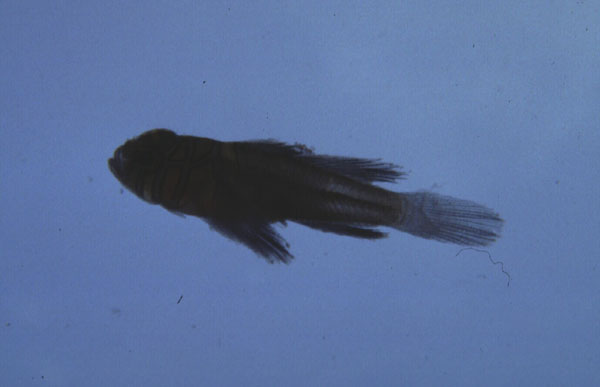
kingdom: Animalia
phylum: Chordata
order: Perciformes
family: Gobiidae
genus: Priolepis
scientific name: Priolepis compita
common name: Crossroads goby
